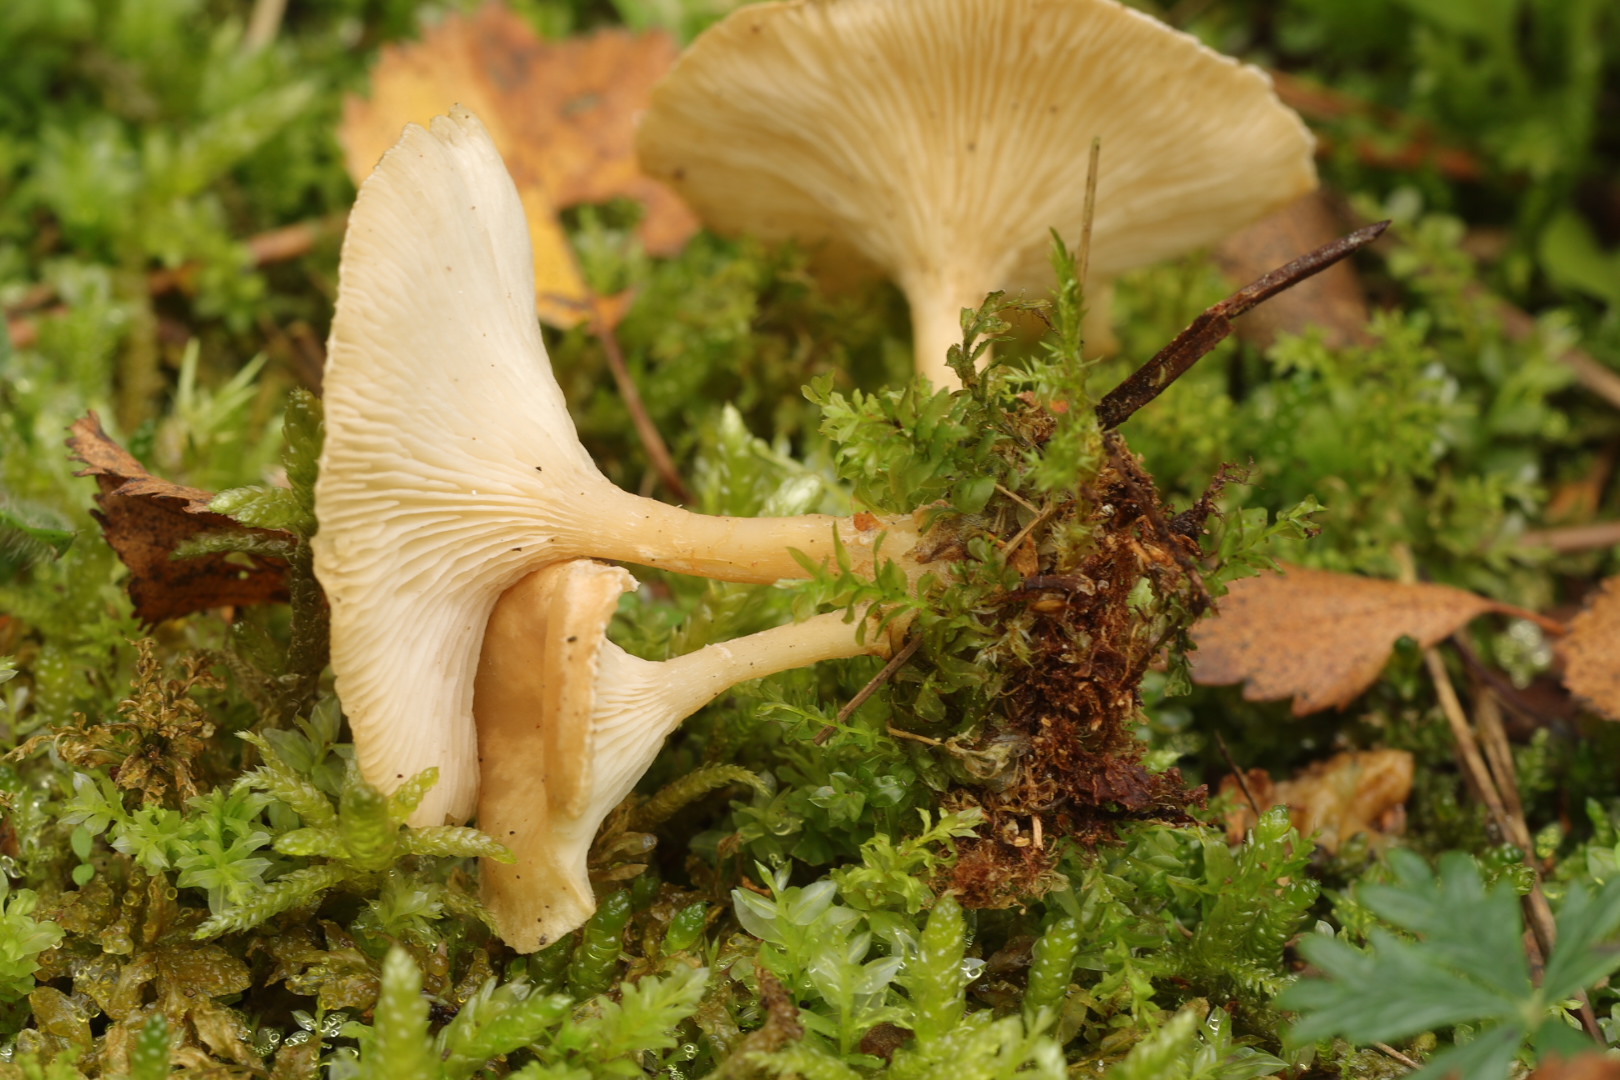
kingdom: Fungi
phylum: Basidiomycota
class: Agaricomycetes
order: Agaricales
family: Tricholomataceae
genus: Infundibulicybe
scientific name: Infundibulicybe gibba
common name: almindelig tragthat
